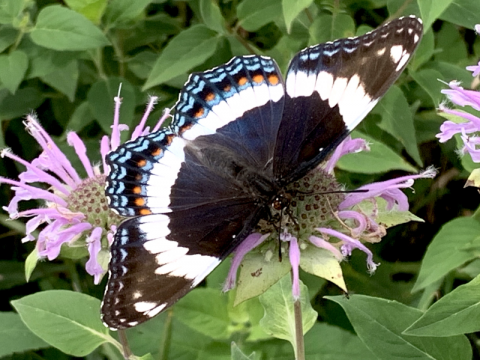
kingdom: Animalia
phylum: Arthropoda
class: Insecta
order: Lepidoptera
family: Nymphalidae
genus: Limenitis
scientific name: Limenitis arthemis
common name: Red-spotted Admiral
